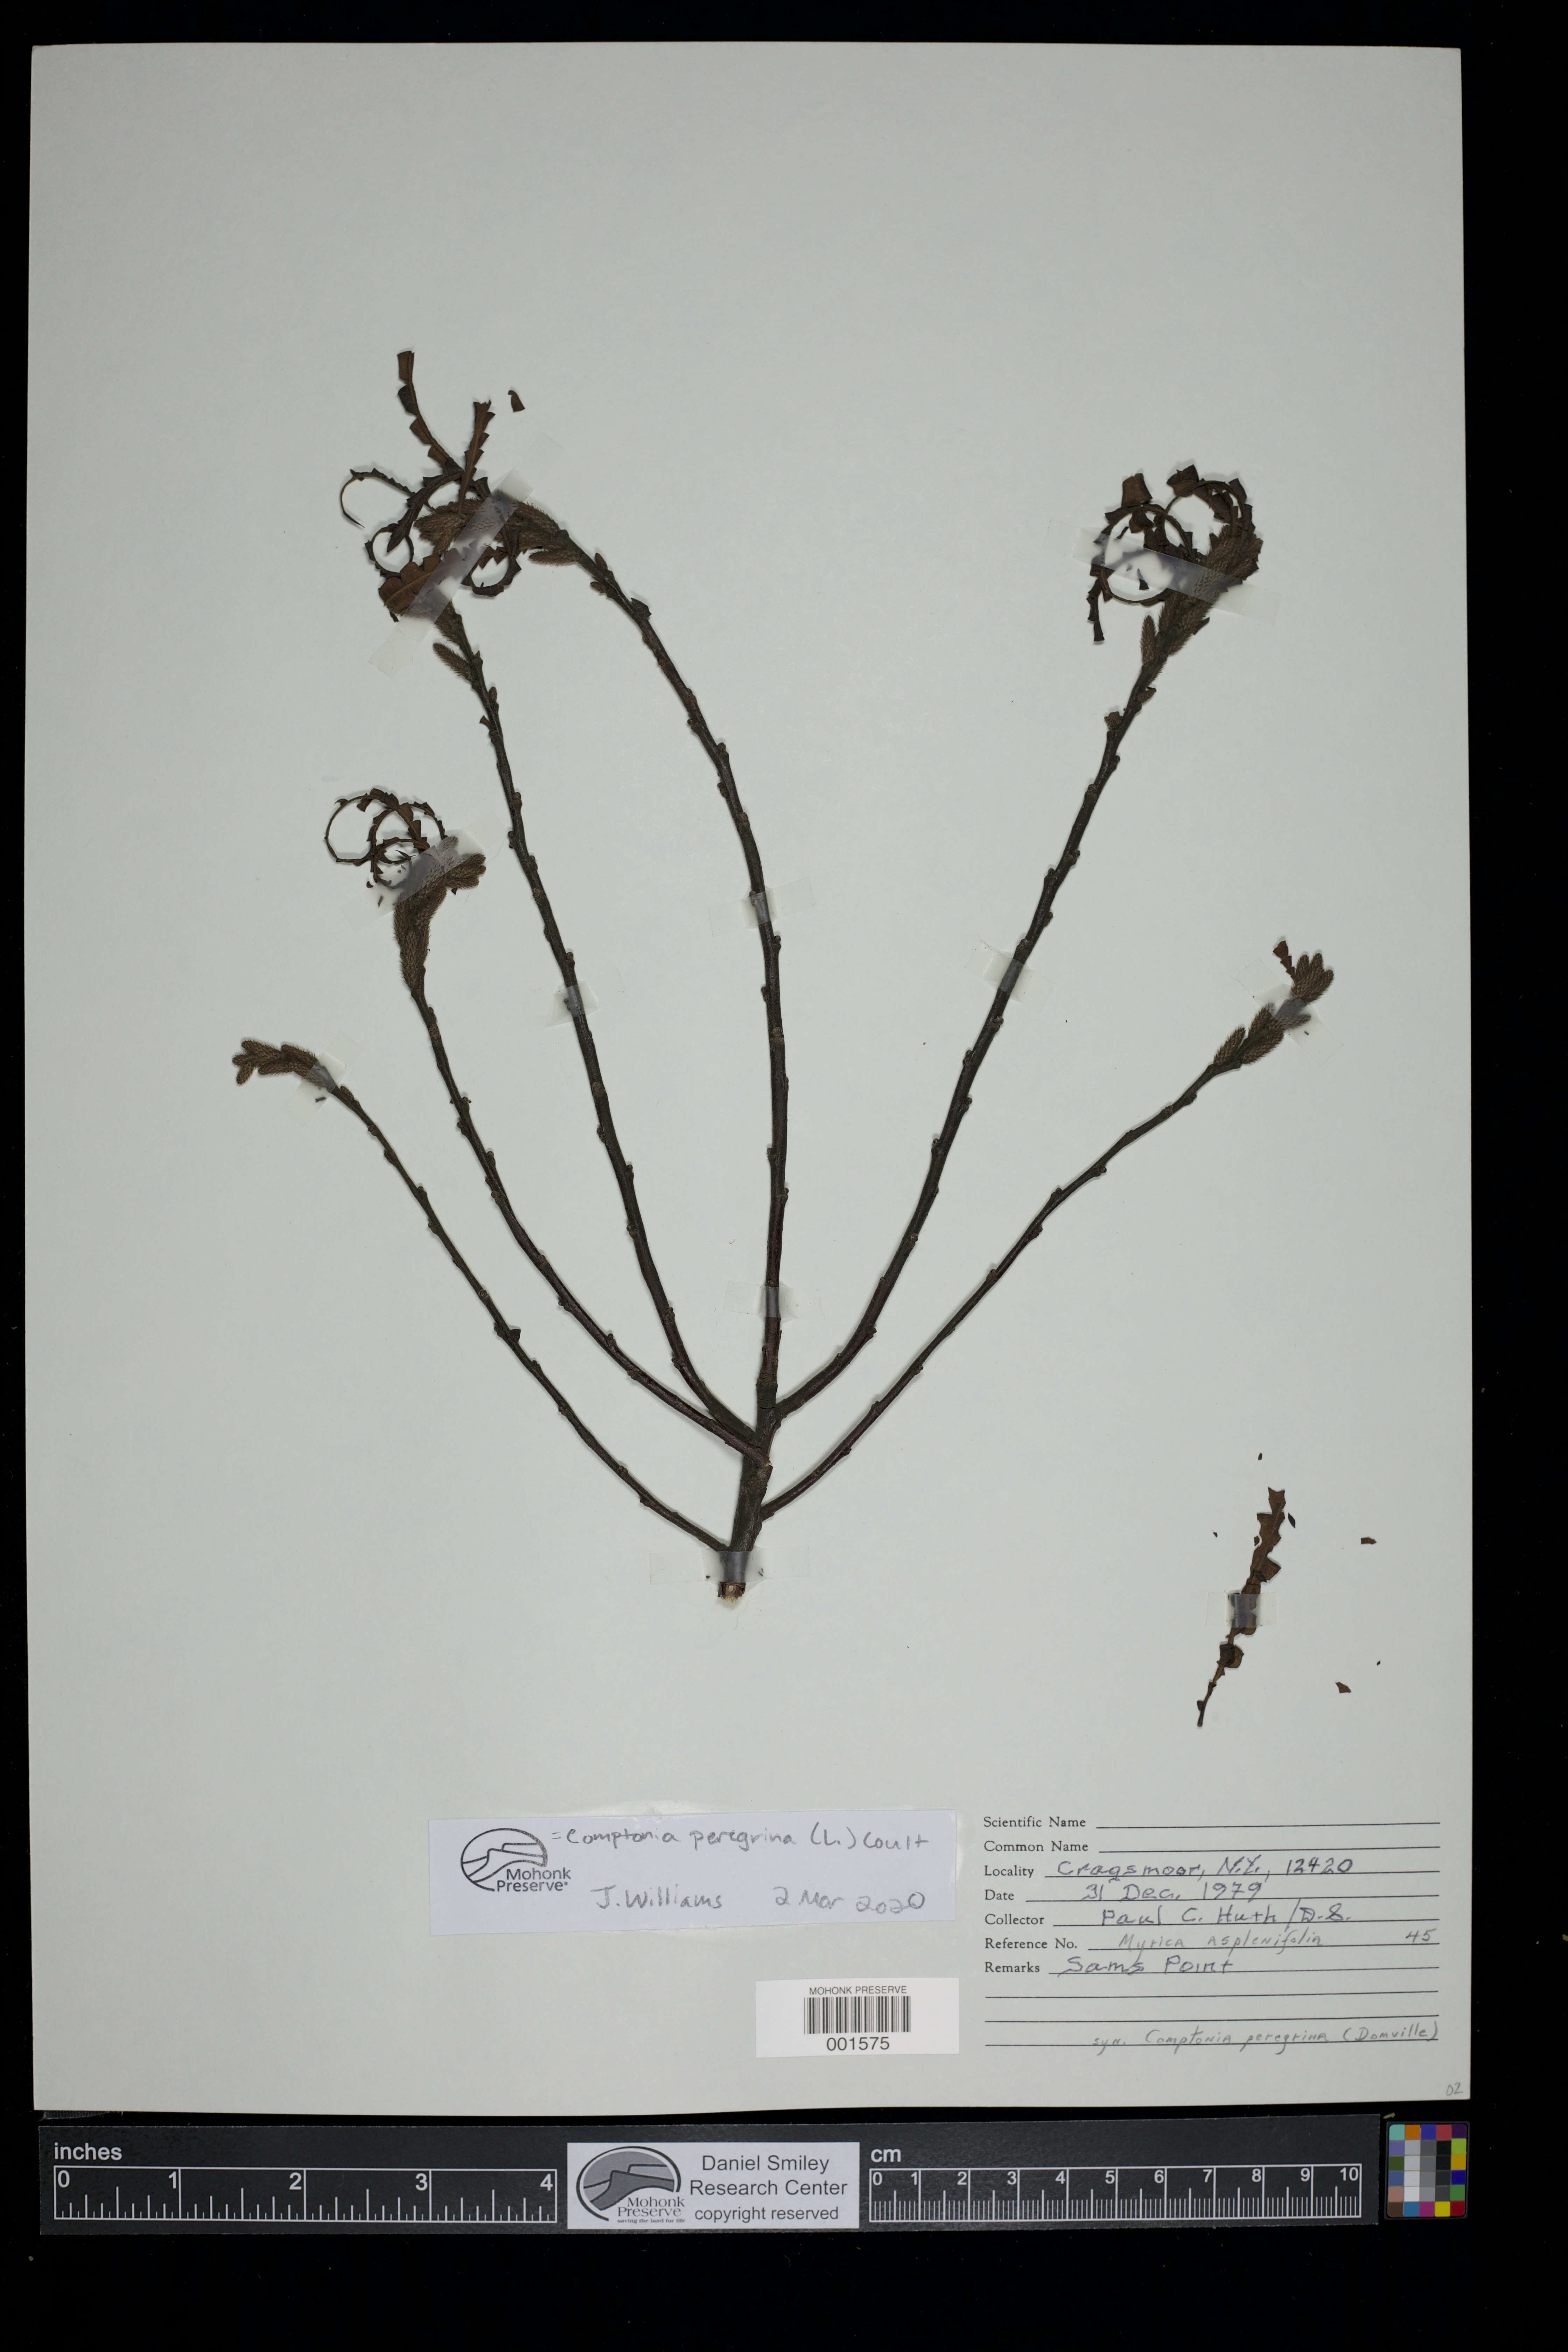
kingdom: Plantae
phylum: Tracheophyta
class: Magnoliopsida
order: Fagales
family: Myricaceae
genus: Comptonia
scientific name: Comptonia peregrina
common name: Sweet-fern
